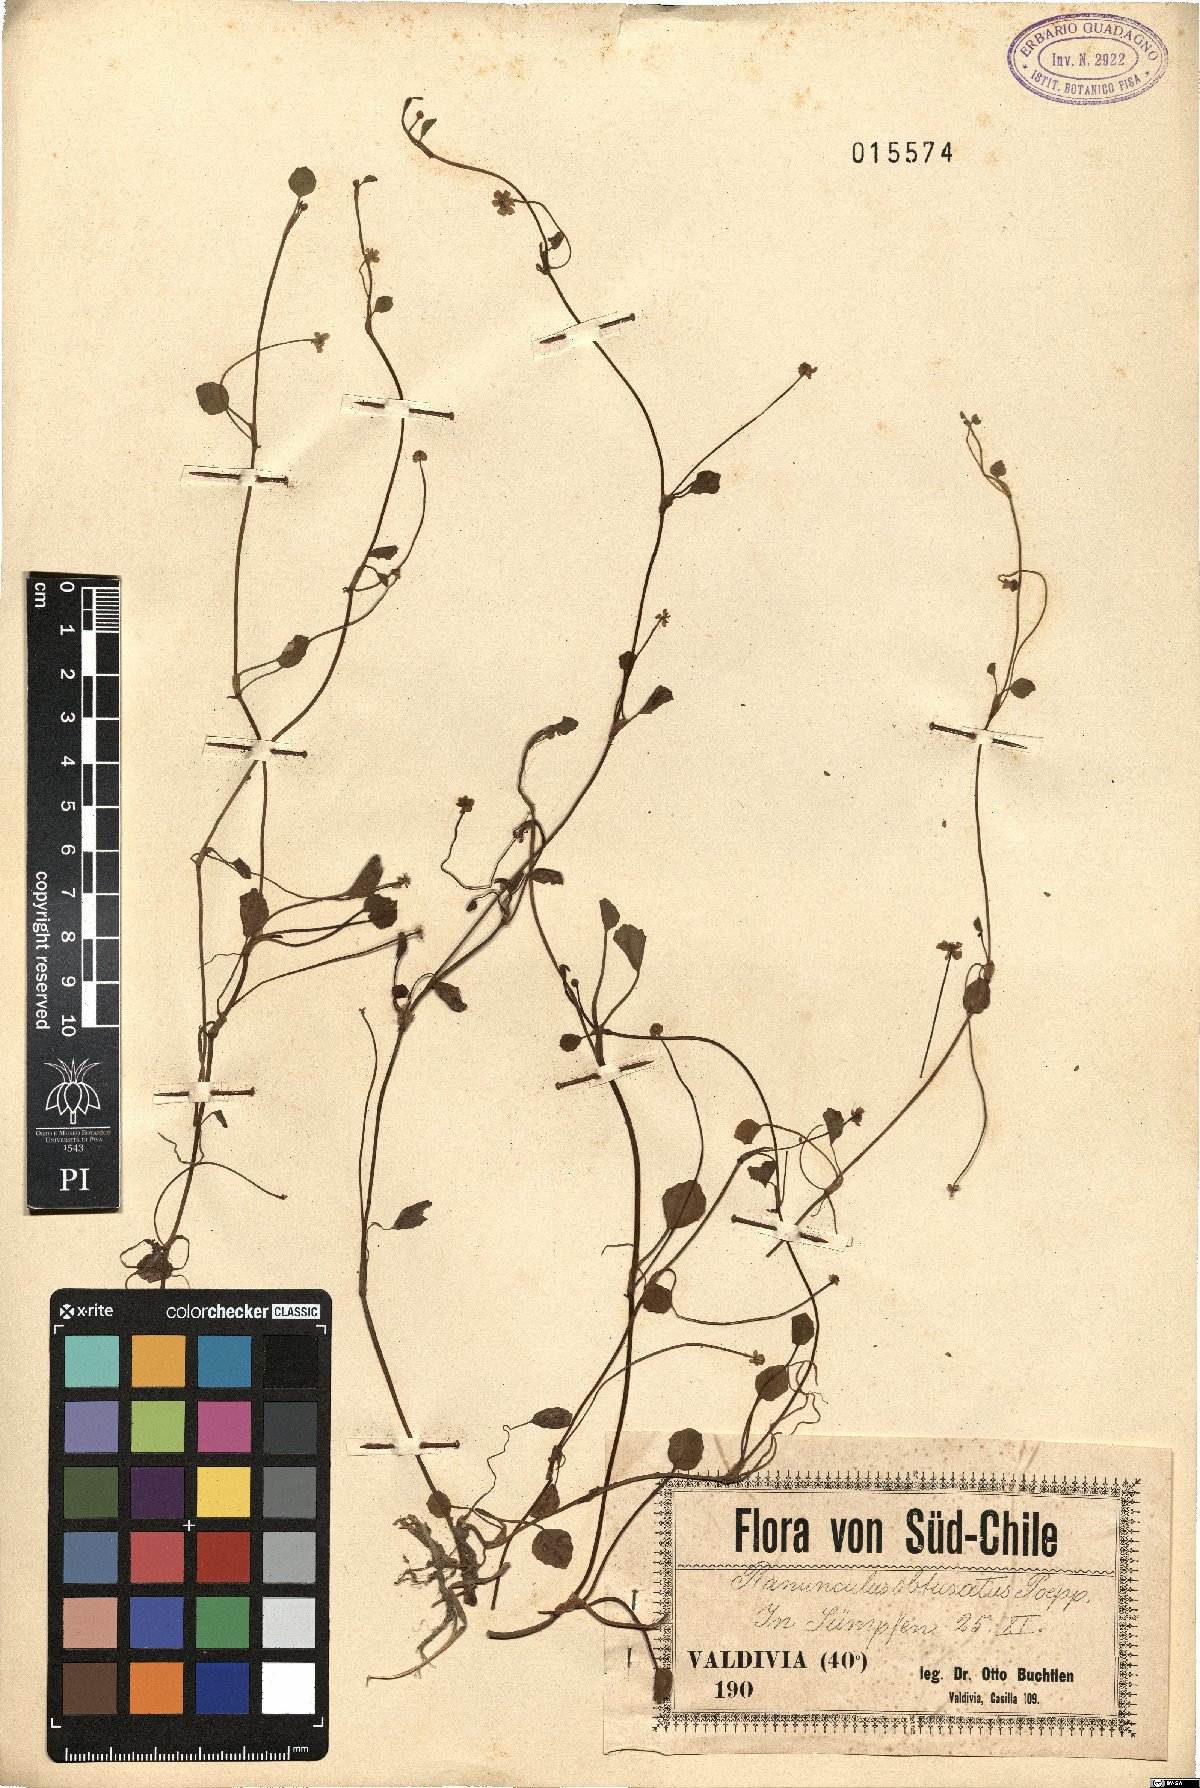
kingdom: Plantae
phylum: Tracheophyta
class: Magnoliopsida
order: Ranunculales
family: Ranunculaceae
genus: Ranunculus
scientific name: Ranunculus bonariensis
